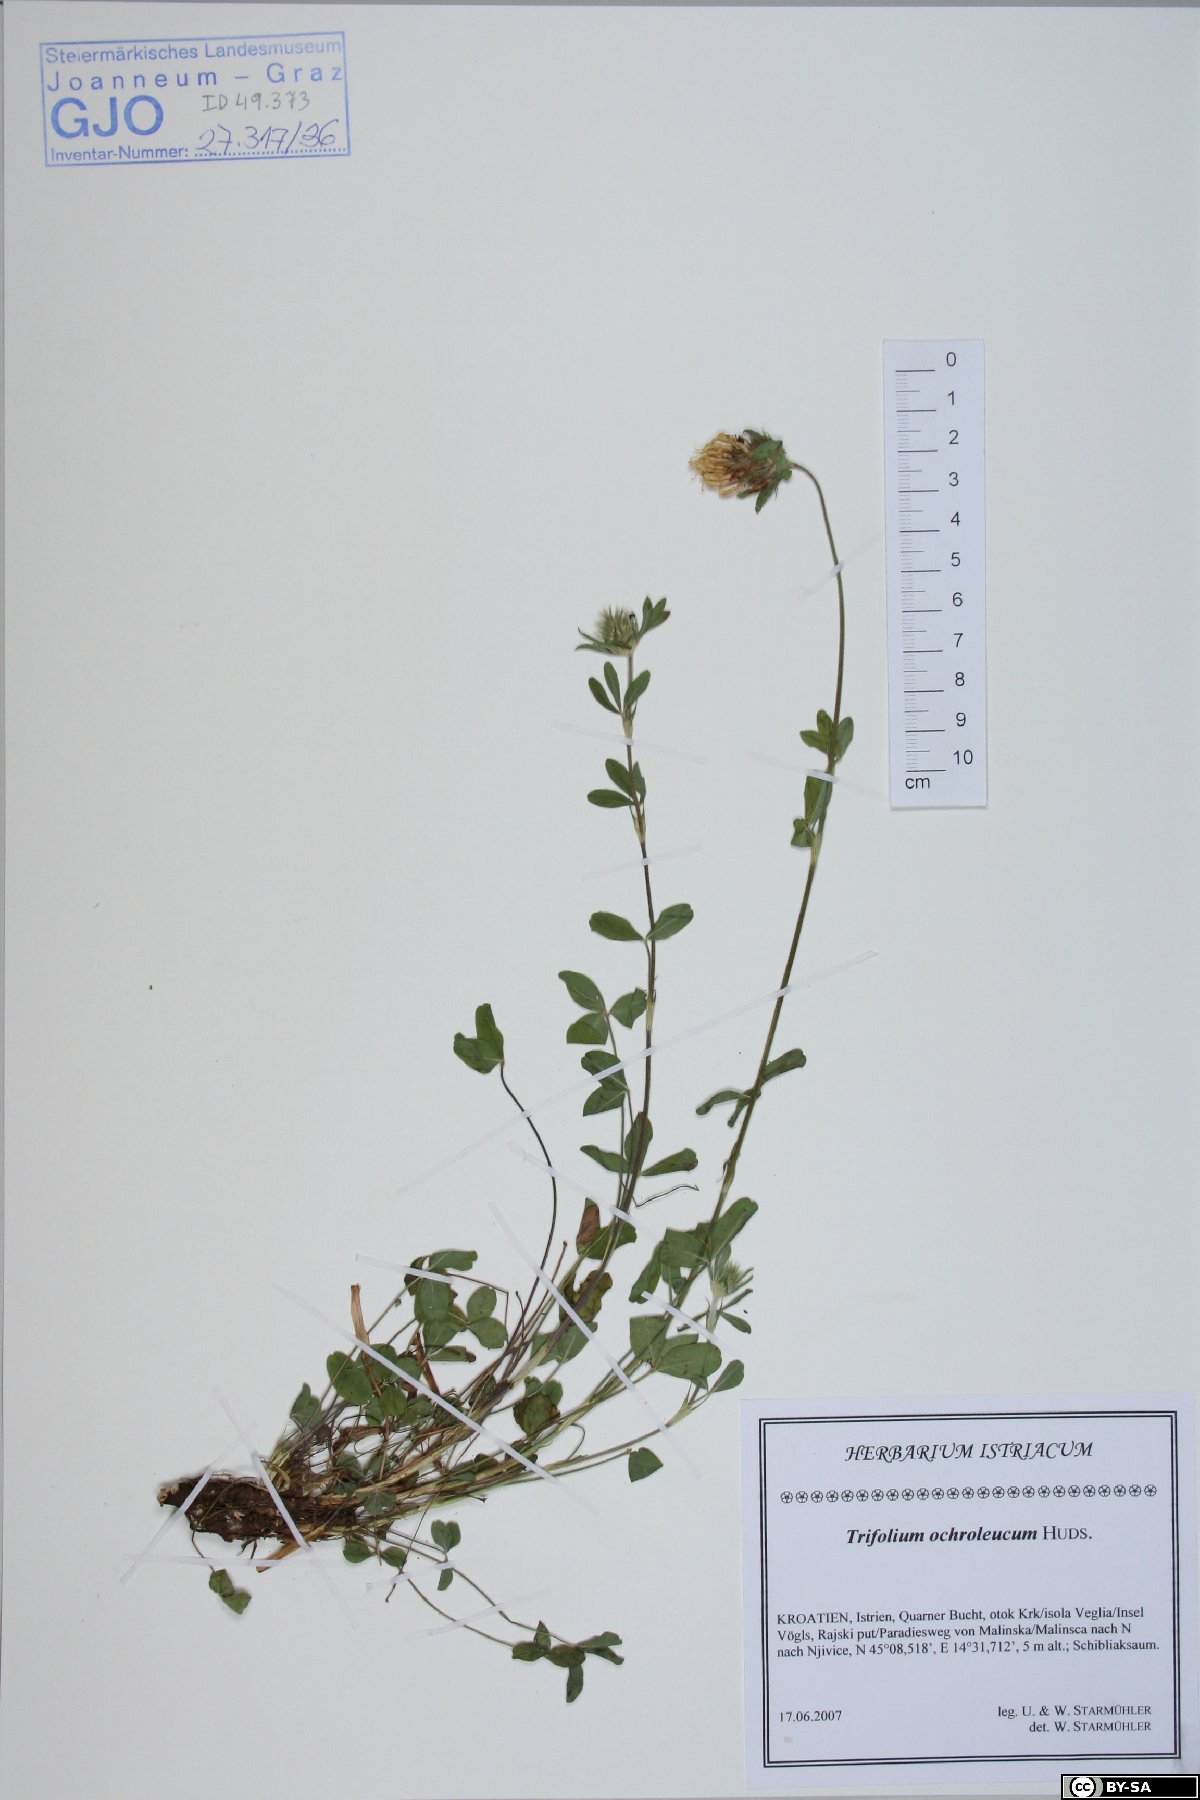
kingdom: Plantae
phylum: Tracheophyta
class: Magnoliopsida
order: Fabales
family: Fabaceae
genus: Trifolium
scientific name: Trifolium ochroleucon
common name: Sulphur clover
